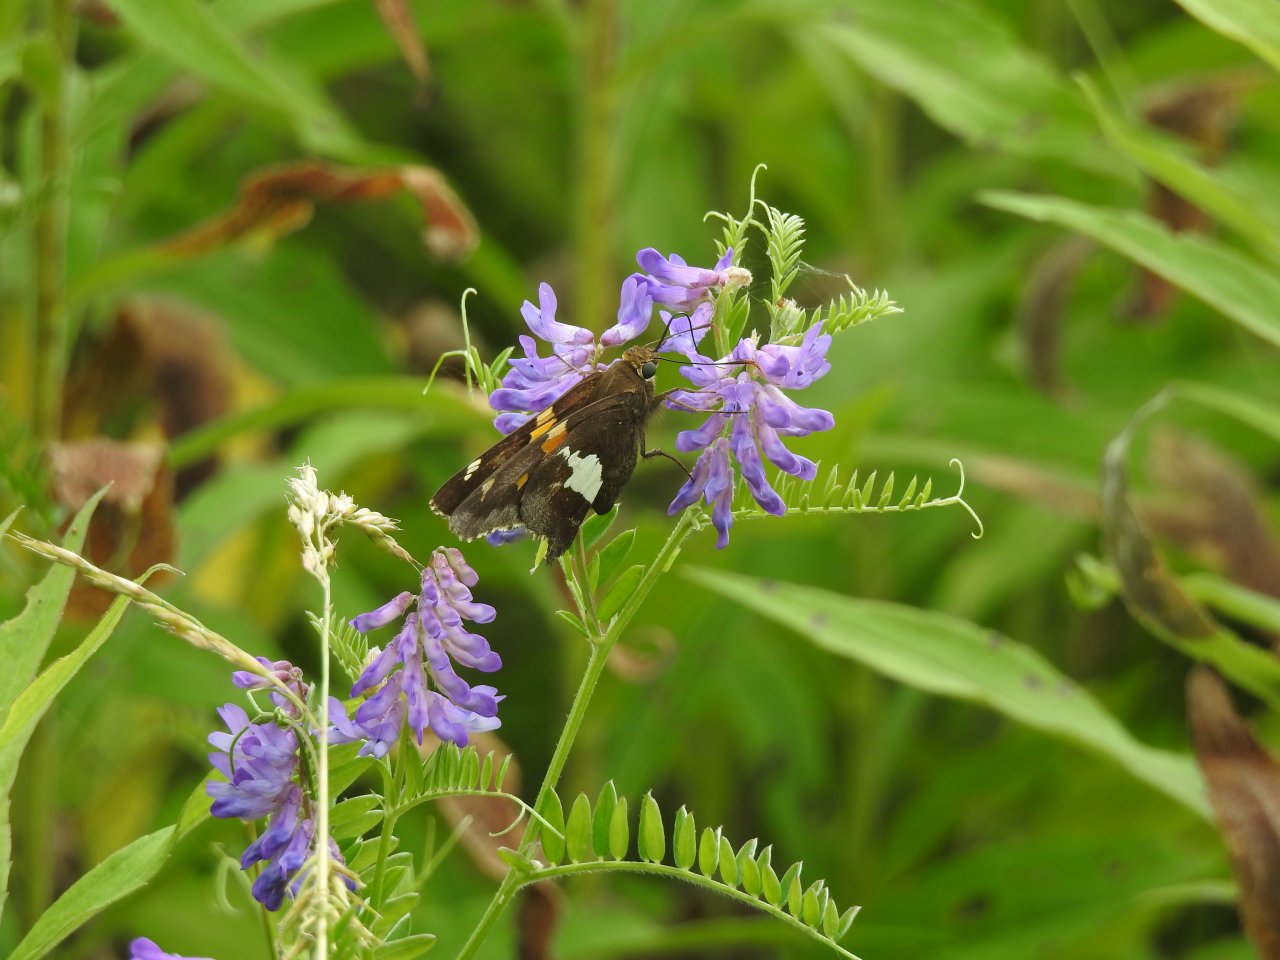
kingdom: Animalia
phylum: Arthropoda
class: Insecta
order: Lepidoptera
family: Hesperiidae
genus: Epargyreus
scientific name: Epargyreus clarus
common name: Silver-spotted Skipper
